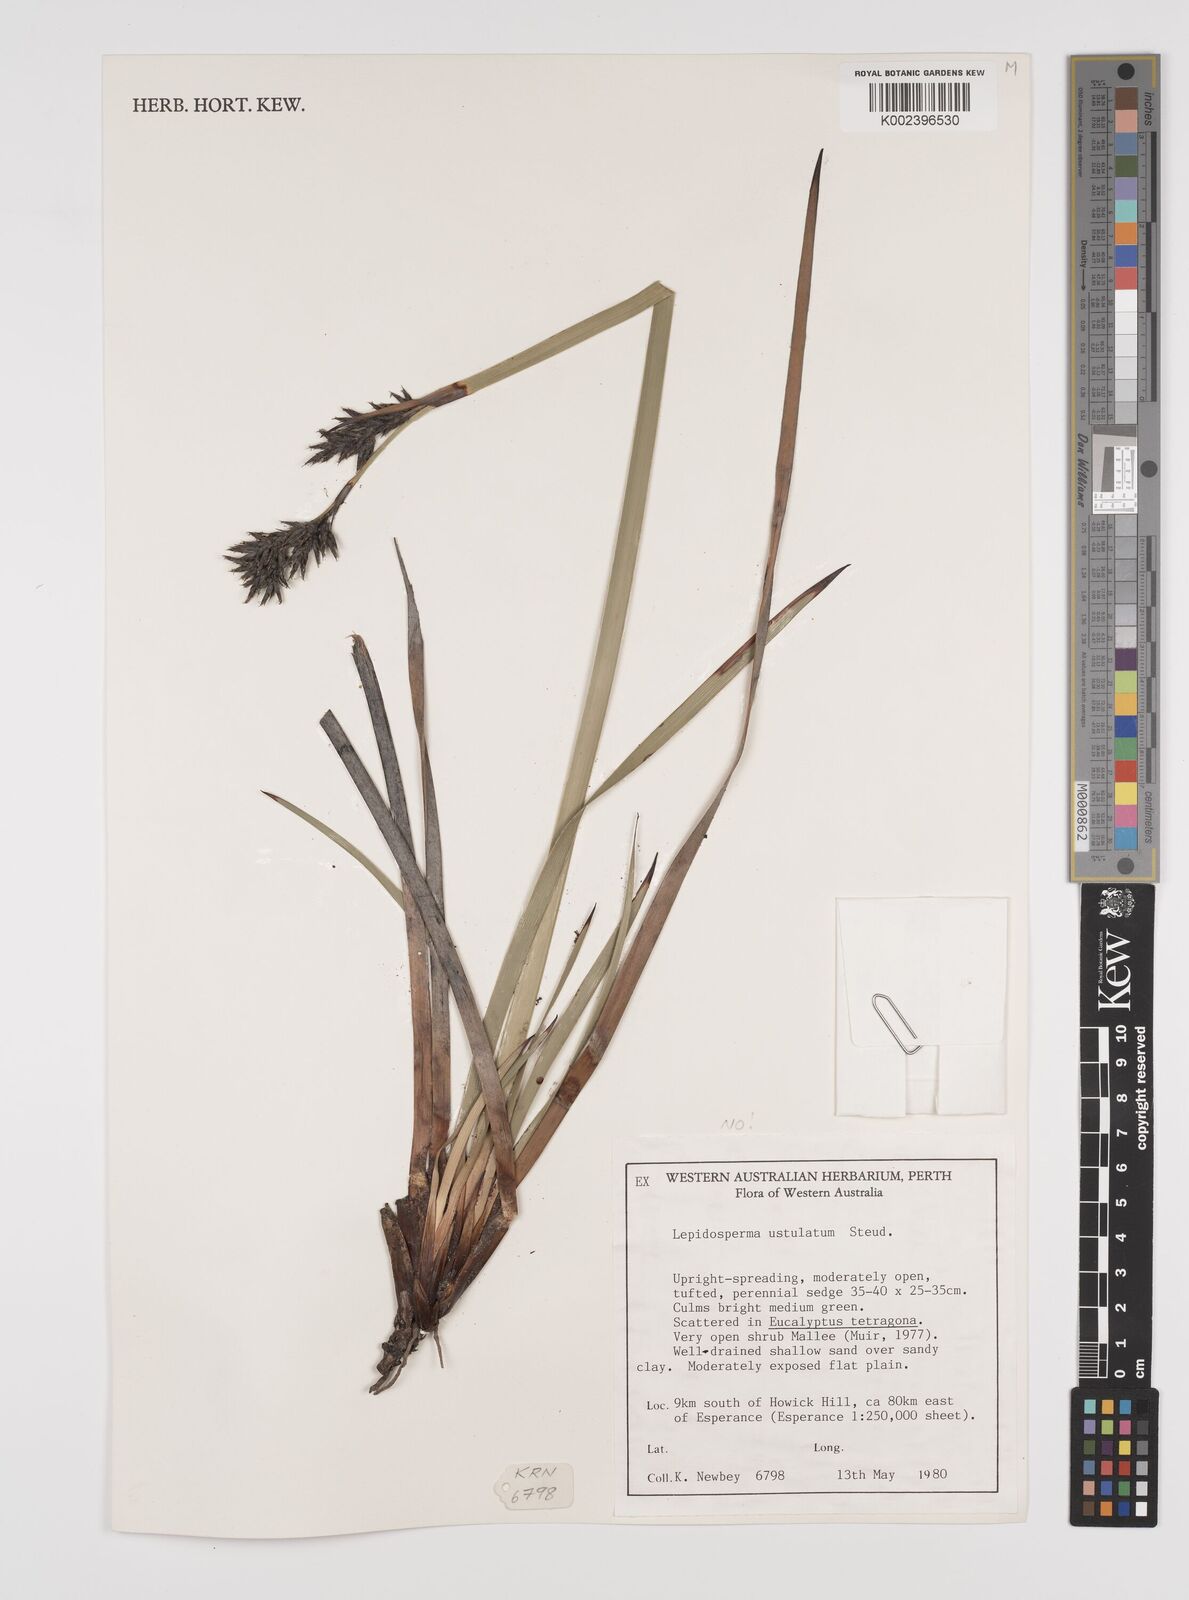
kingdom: Plantae
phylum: Tracheophyta
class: Liliopsida
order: Poales
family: Cyperaceae
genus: Lepidosperma
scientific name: Lepidosperma ustulatum
